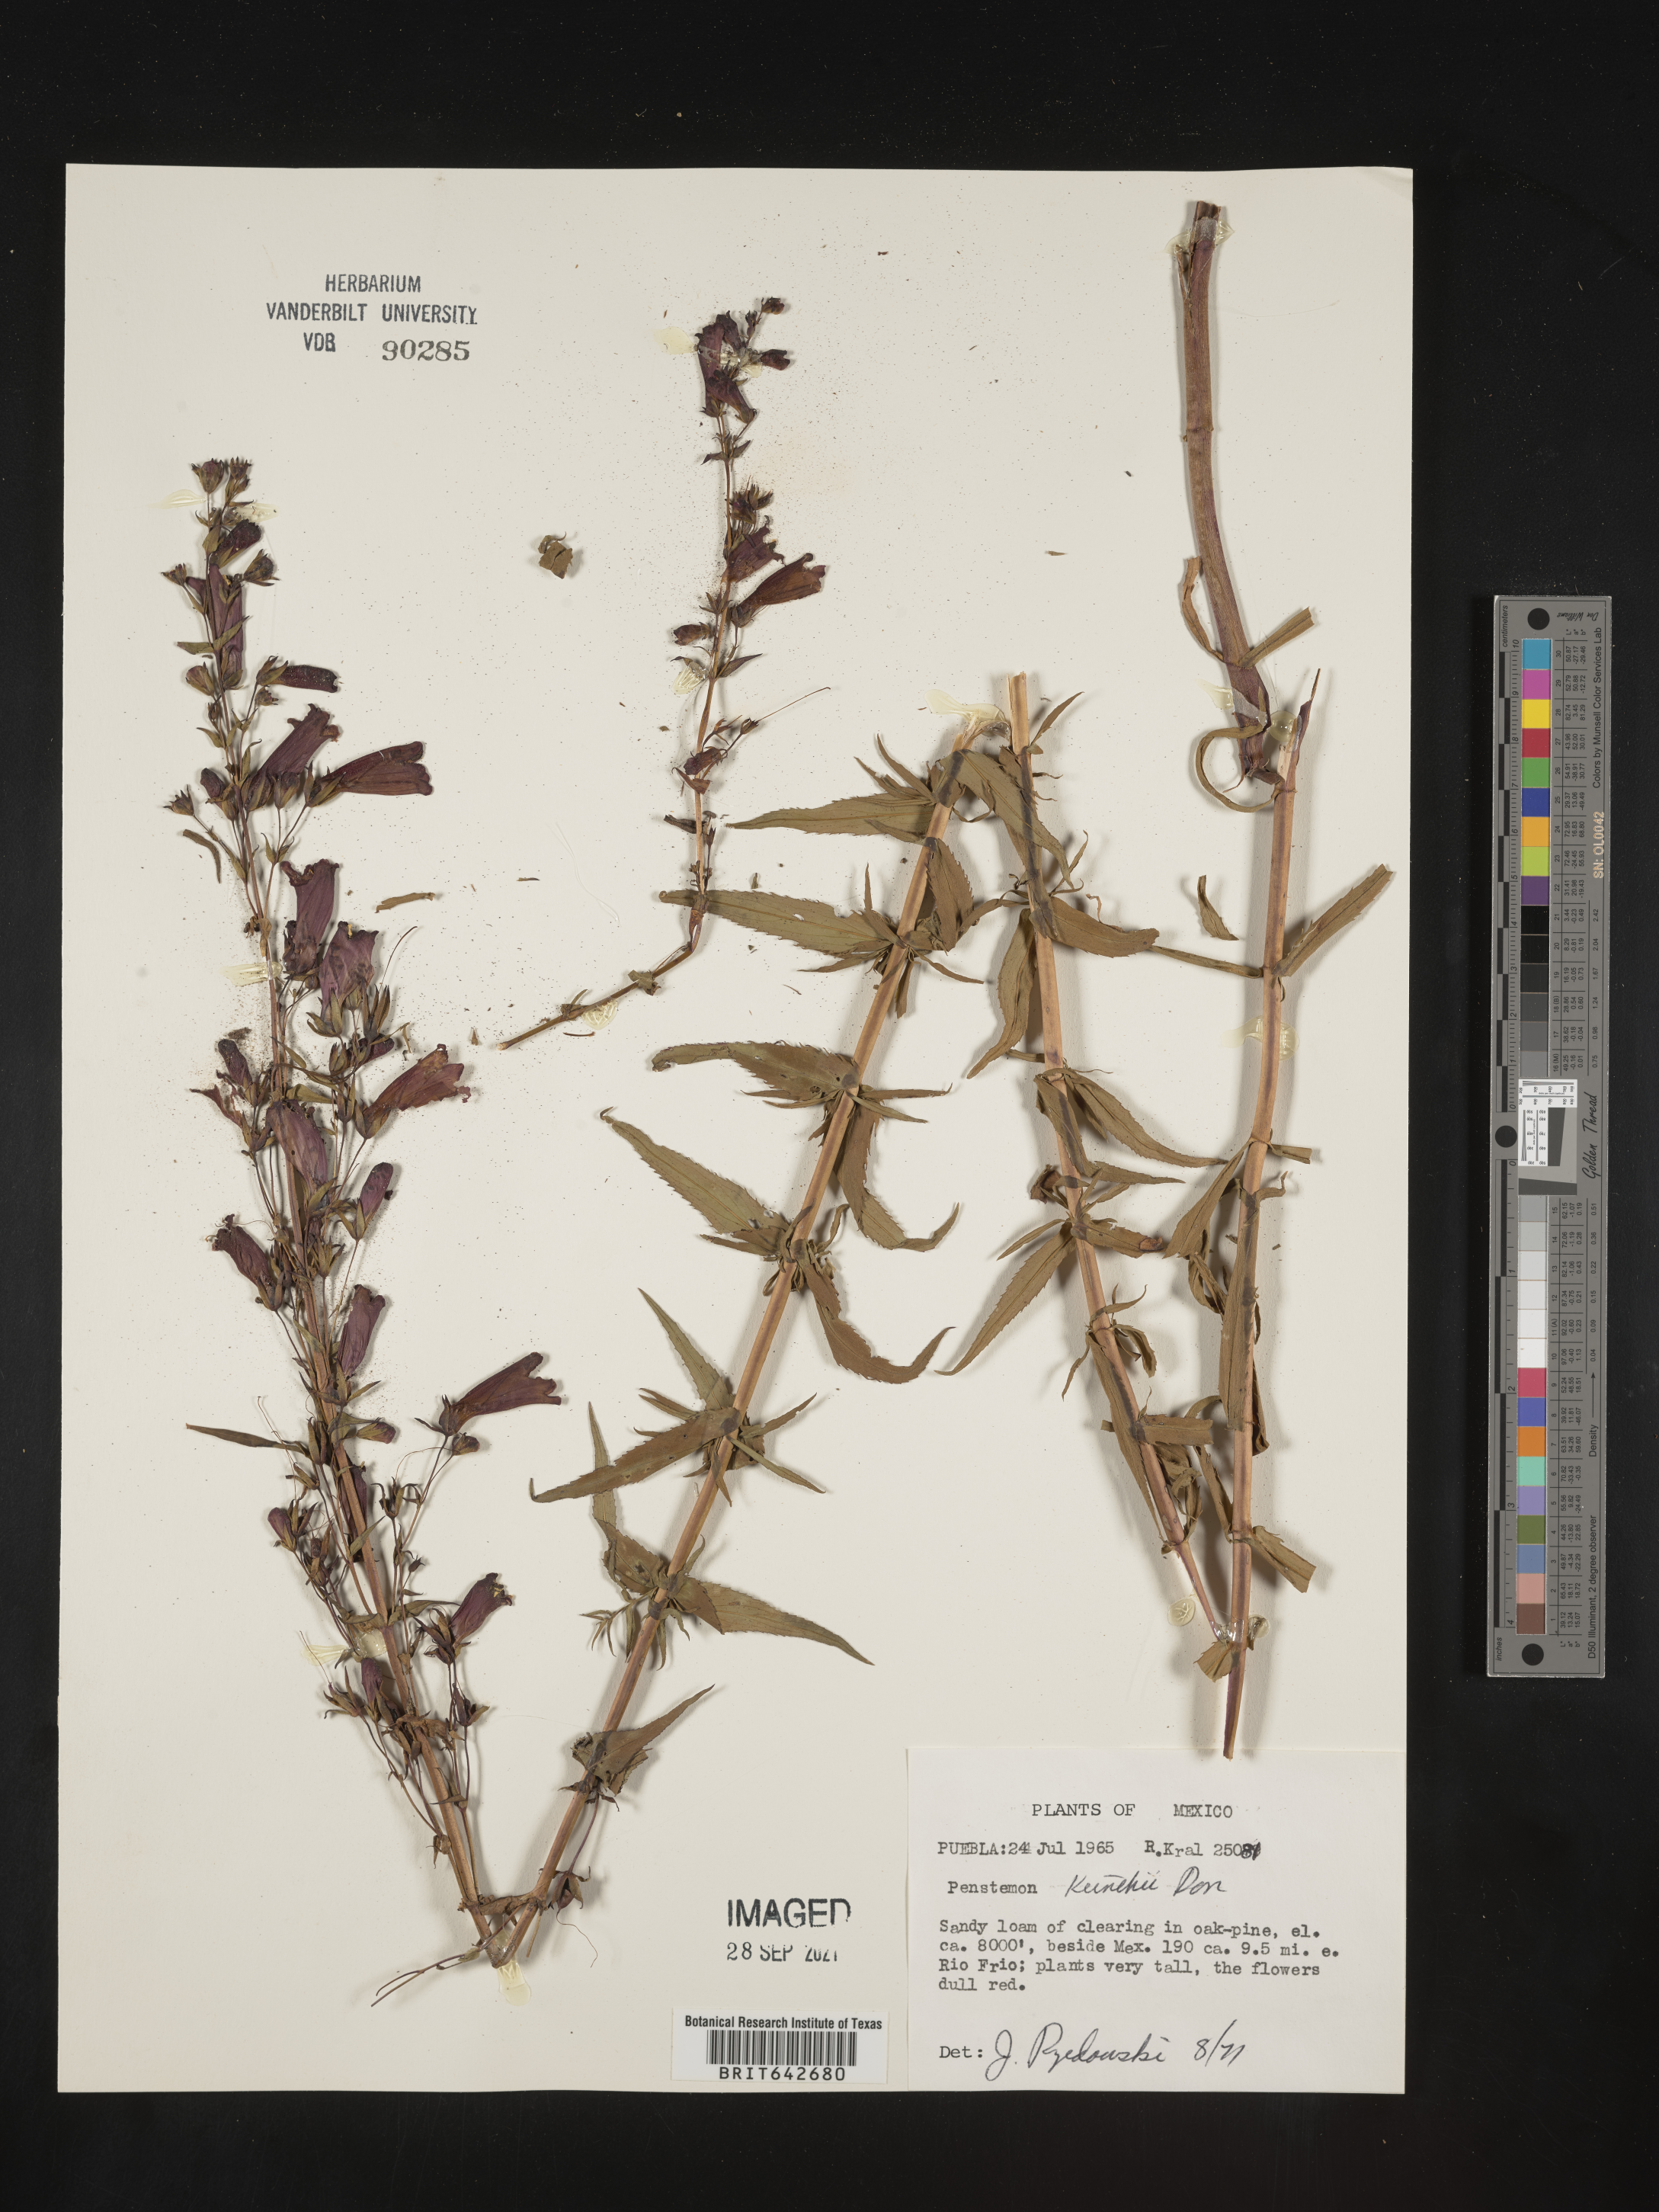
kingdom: Plantae
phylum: Tracheophyta
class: Magnoliopsida
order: Lamiales
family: Plantaginaceae
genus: Penstemon
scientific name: Penstemon
